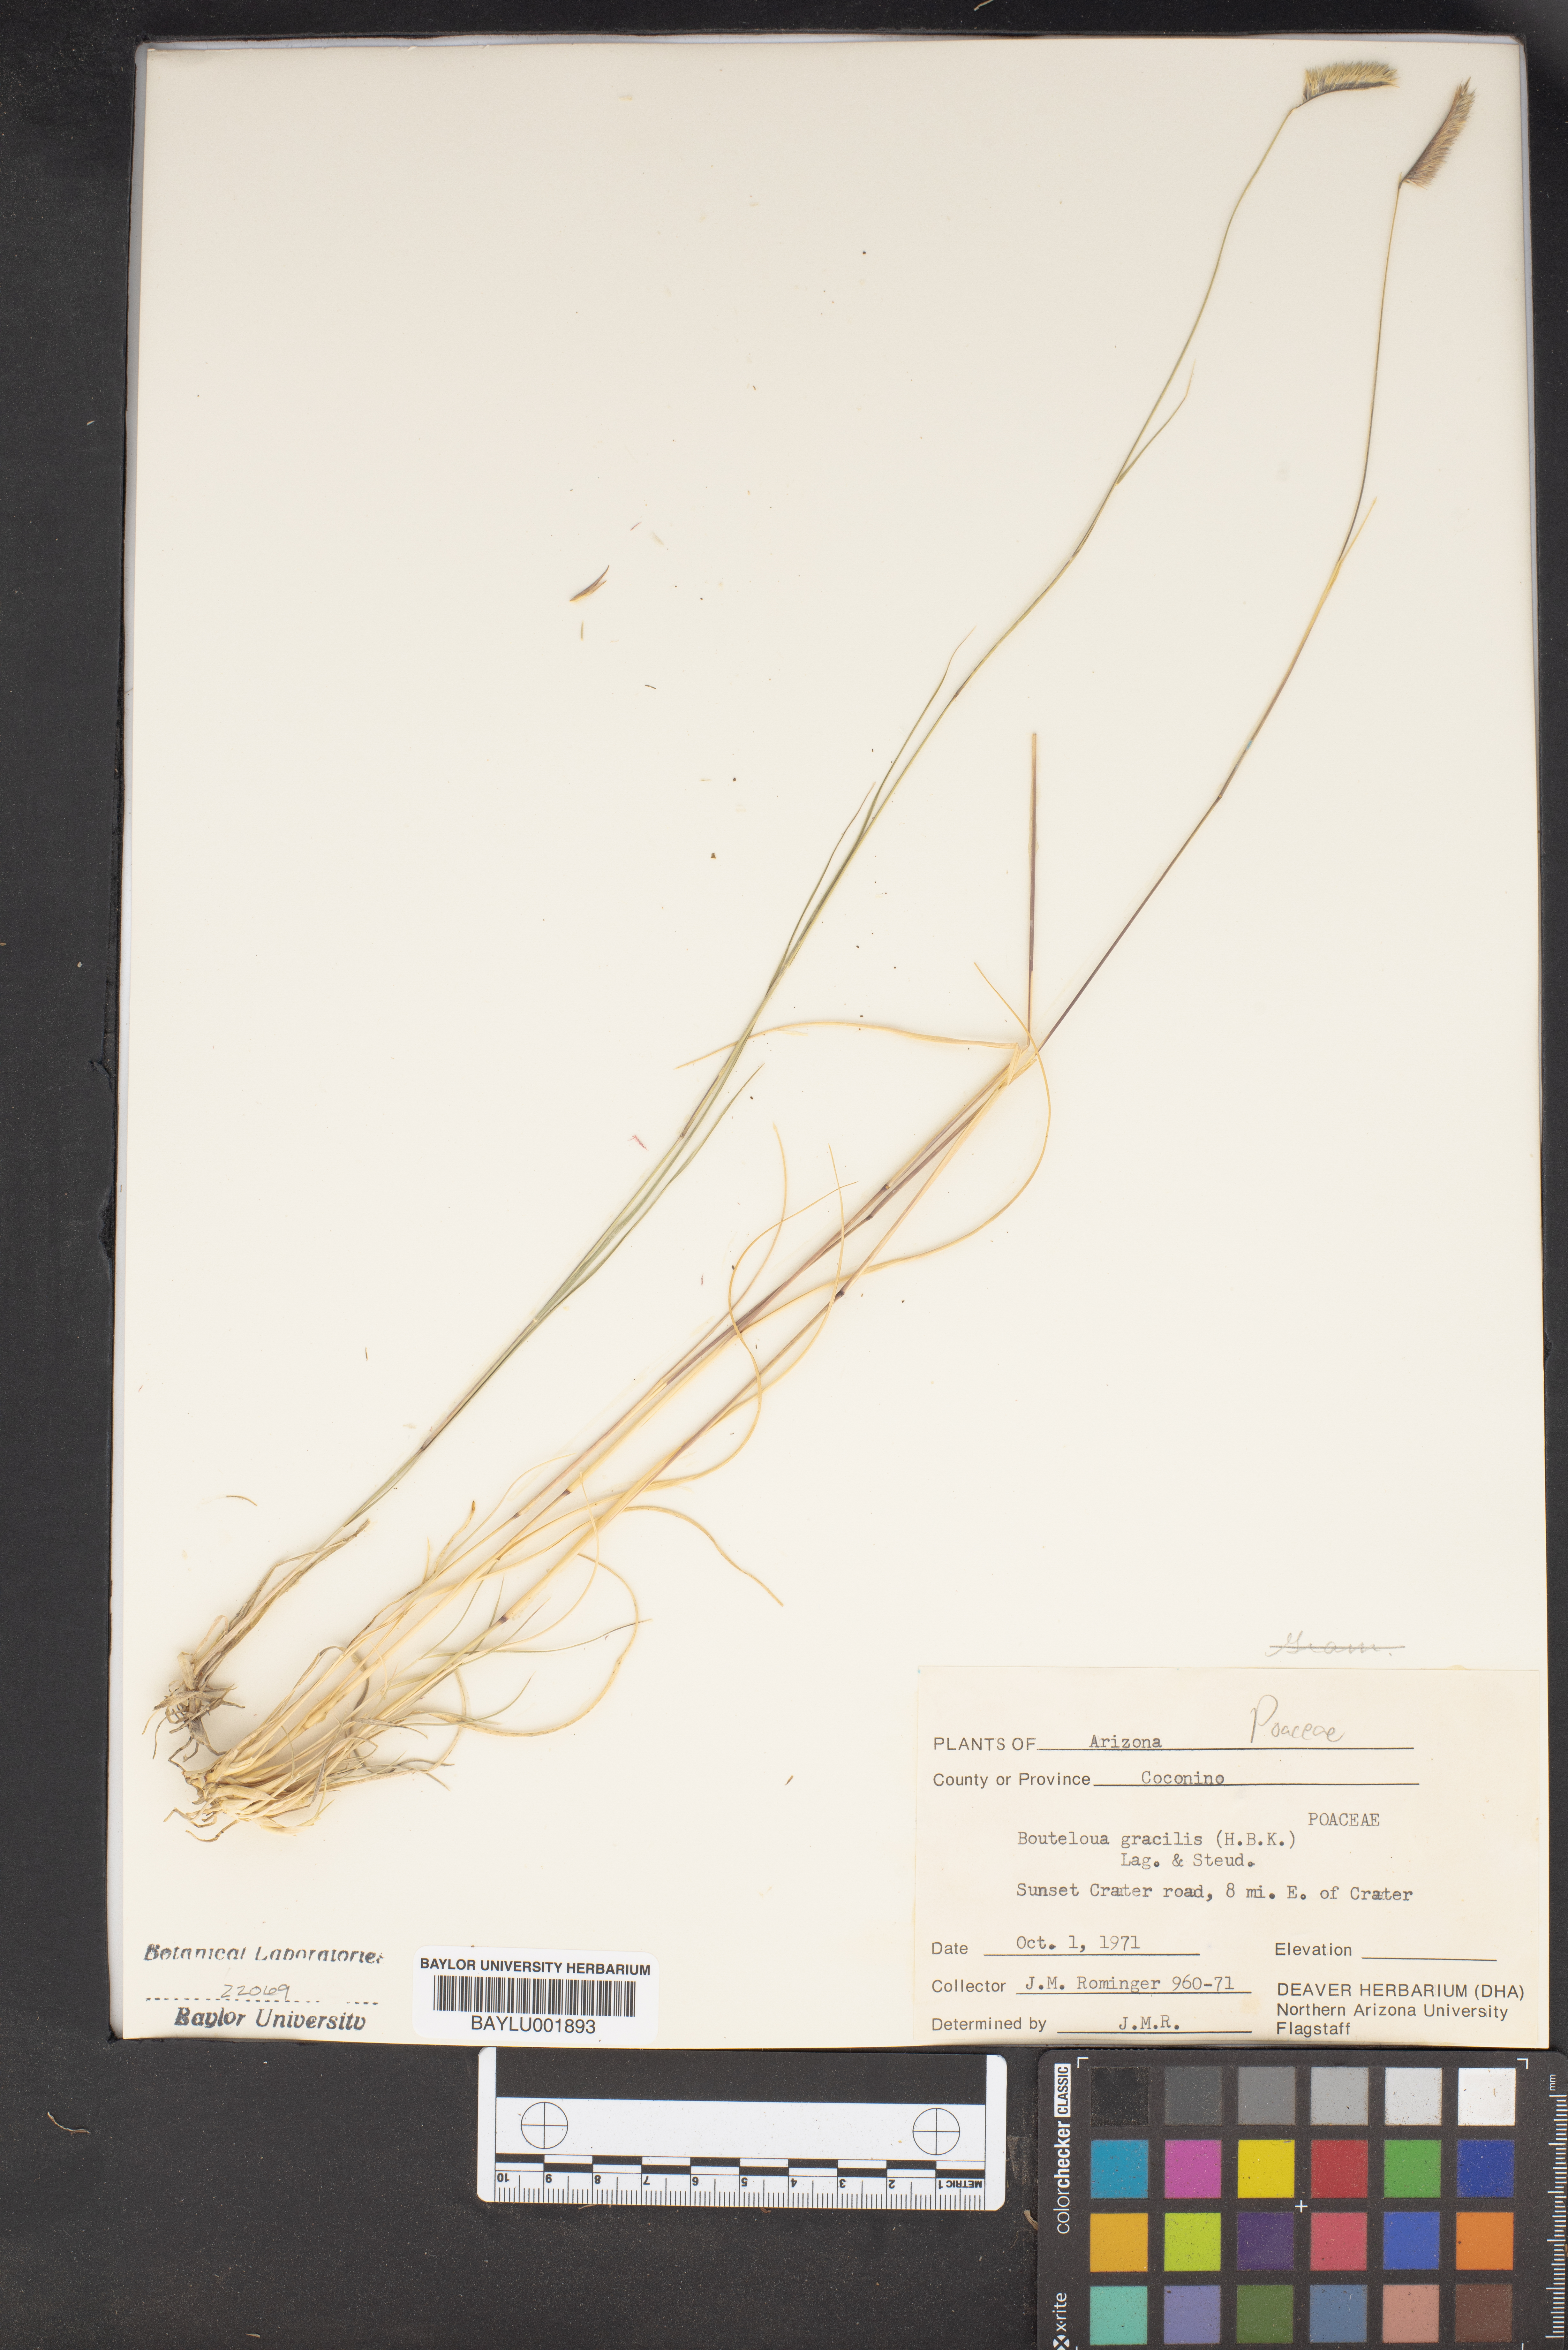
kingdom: Plantae
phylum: Tracheophyta
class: Liliopsida
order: Poales
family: Poaceae
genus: Bouteloua
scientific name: Bouteloua gracilis
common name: Blue grama
